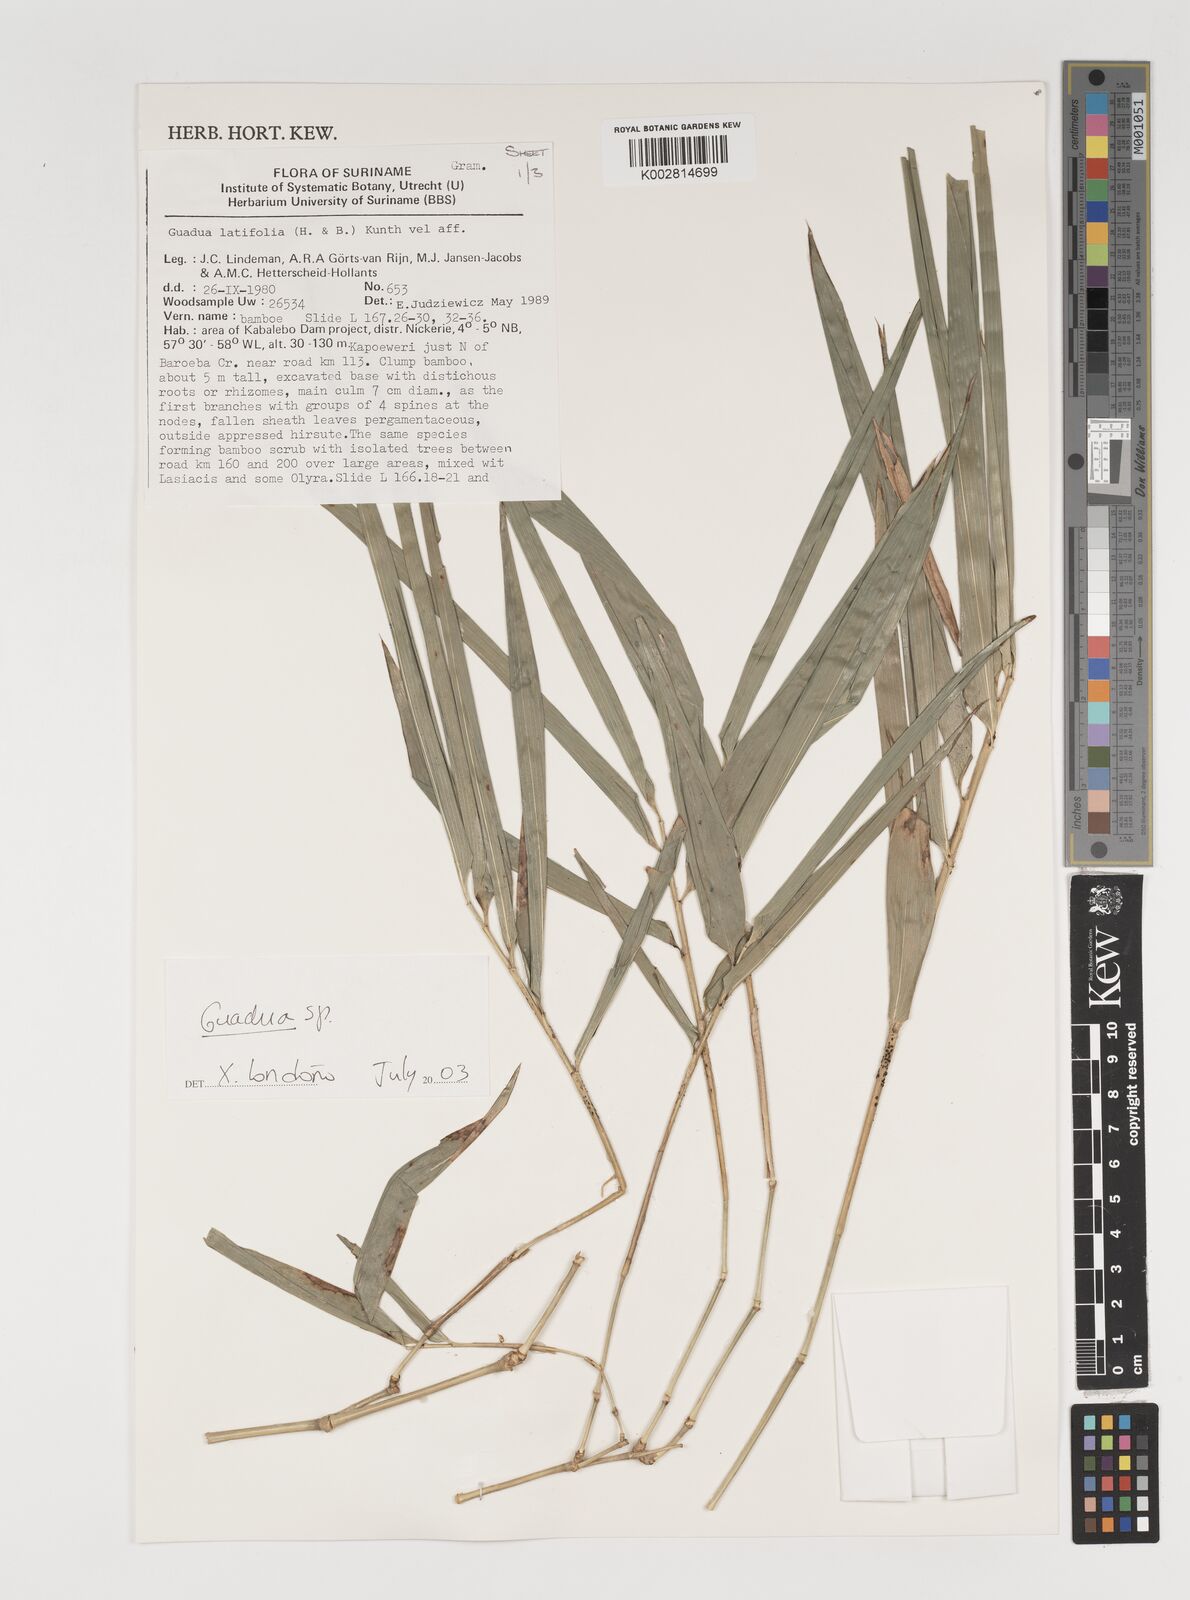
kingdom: Plantae
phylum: Tracheophyta
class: Liliopsida
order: Poales
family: Poaceae
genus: Guadua
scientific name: Guadua
